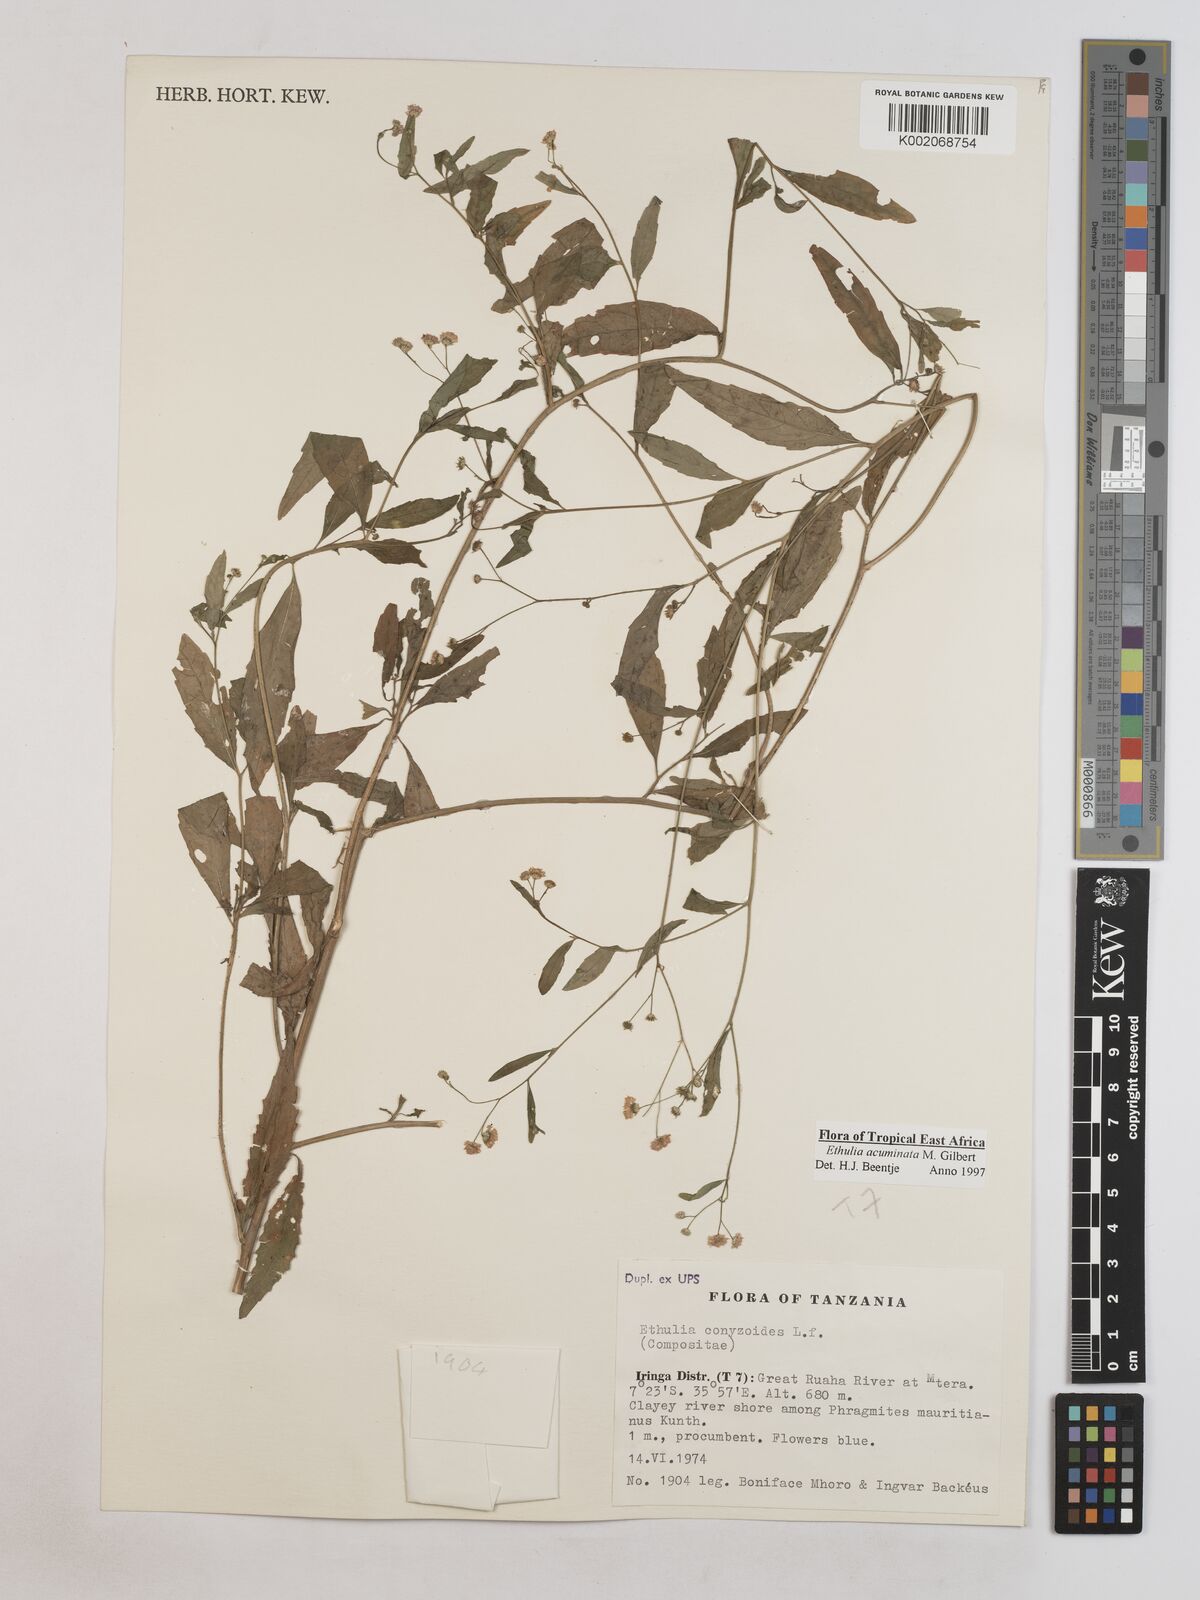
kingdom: Plantae
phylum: Tracheophyta
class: Magnoliopsida
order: Asterales
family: Asteraceae
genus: Ethulia
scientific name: Ethulia acuminata
